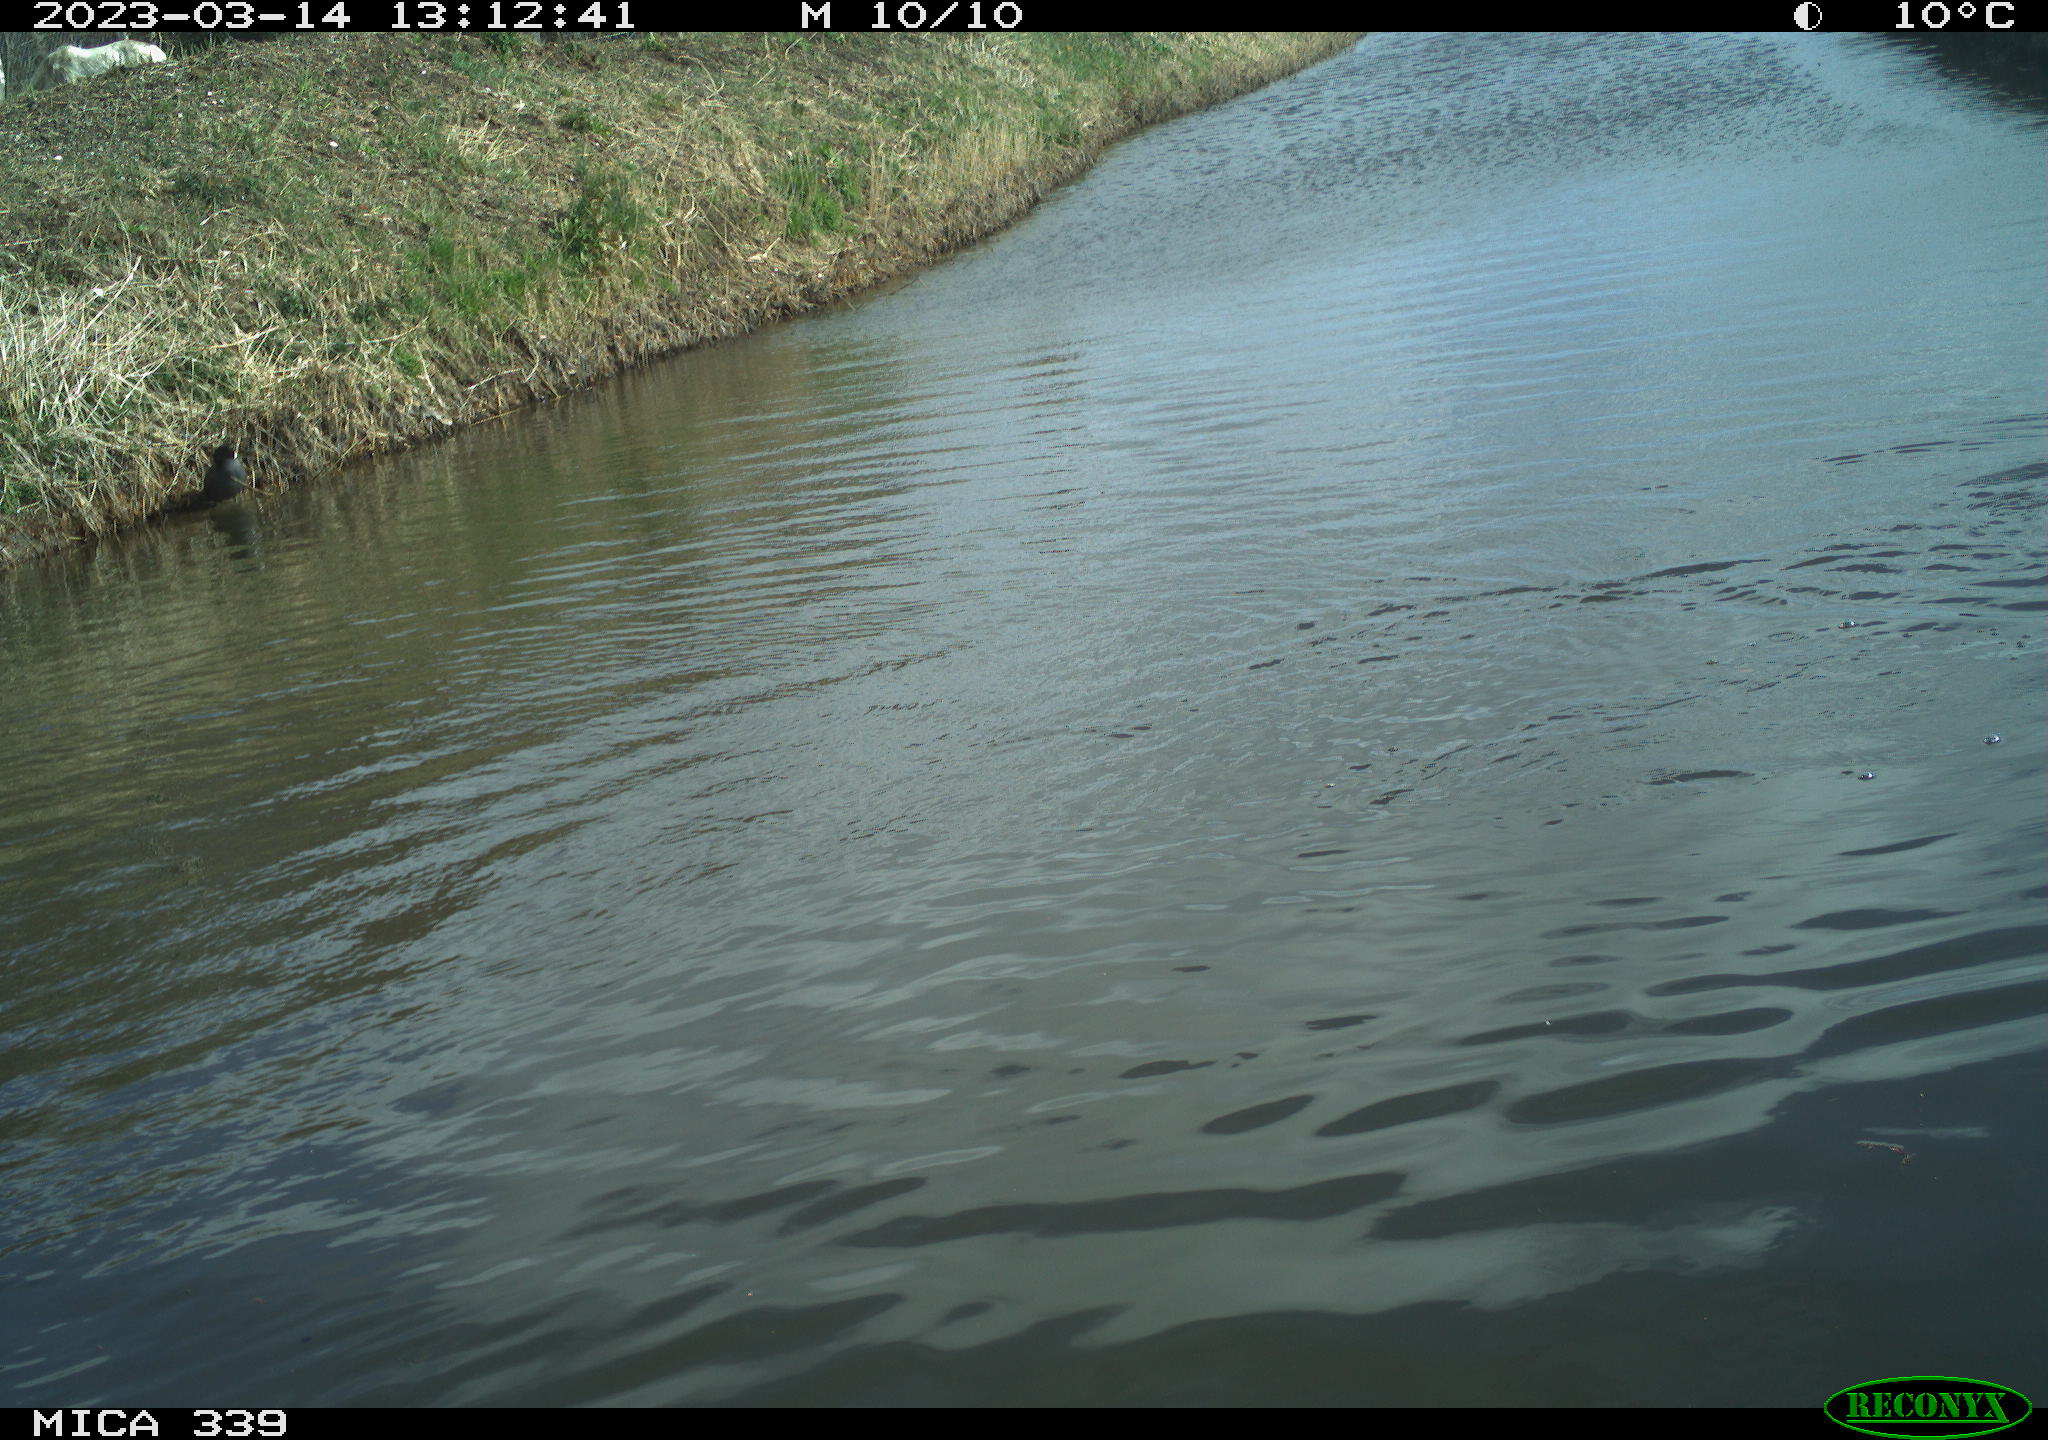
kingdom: Animalia
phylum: Chordata
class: Aves
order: Anseriformes
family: Anatidae
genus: Anas
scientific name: Anas
